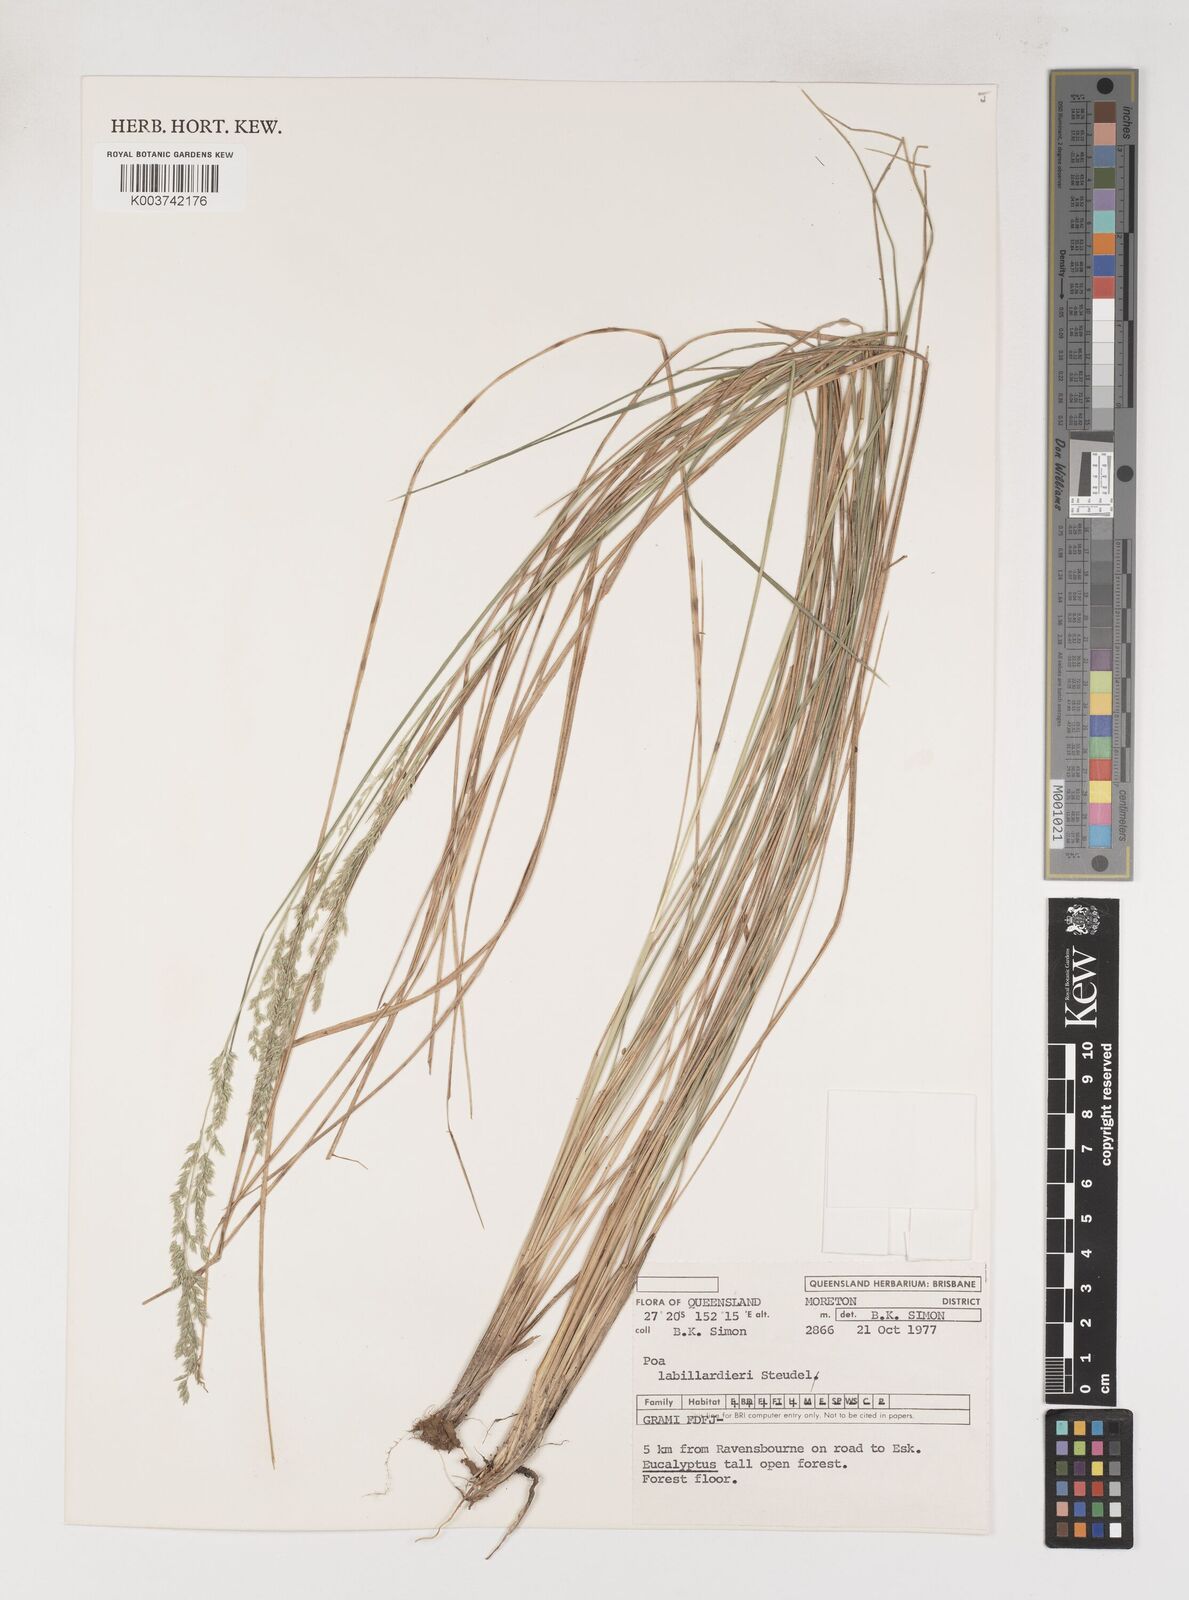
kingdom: Plantae
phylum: Tracheophyta
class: Liliopsida
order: Poales
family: Poaceae
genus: Poa
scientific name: Poa labillardierei
